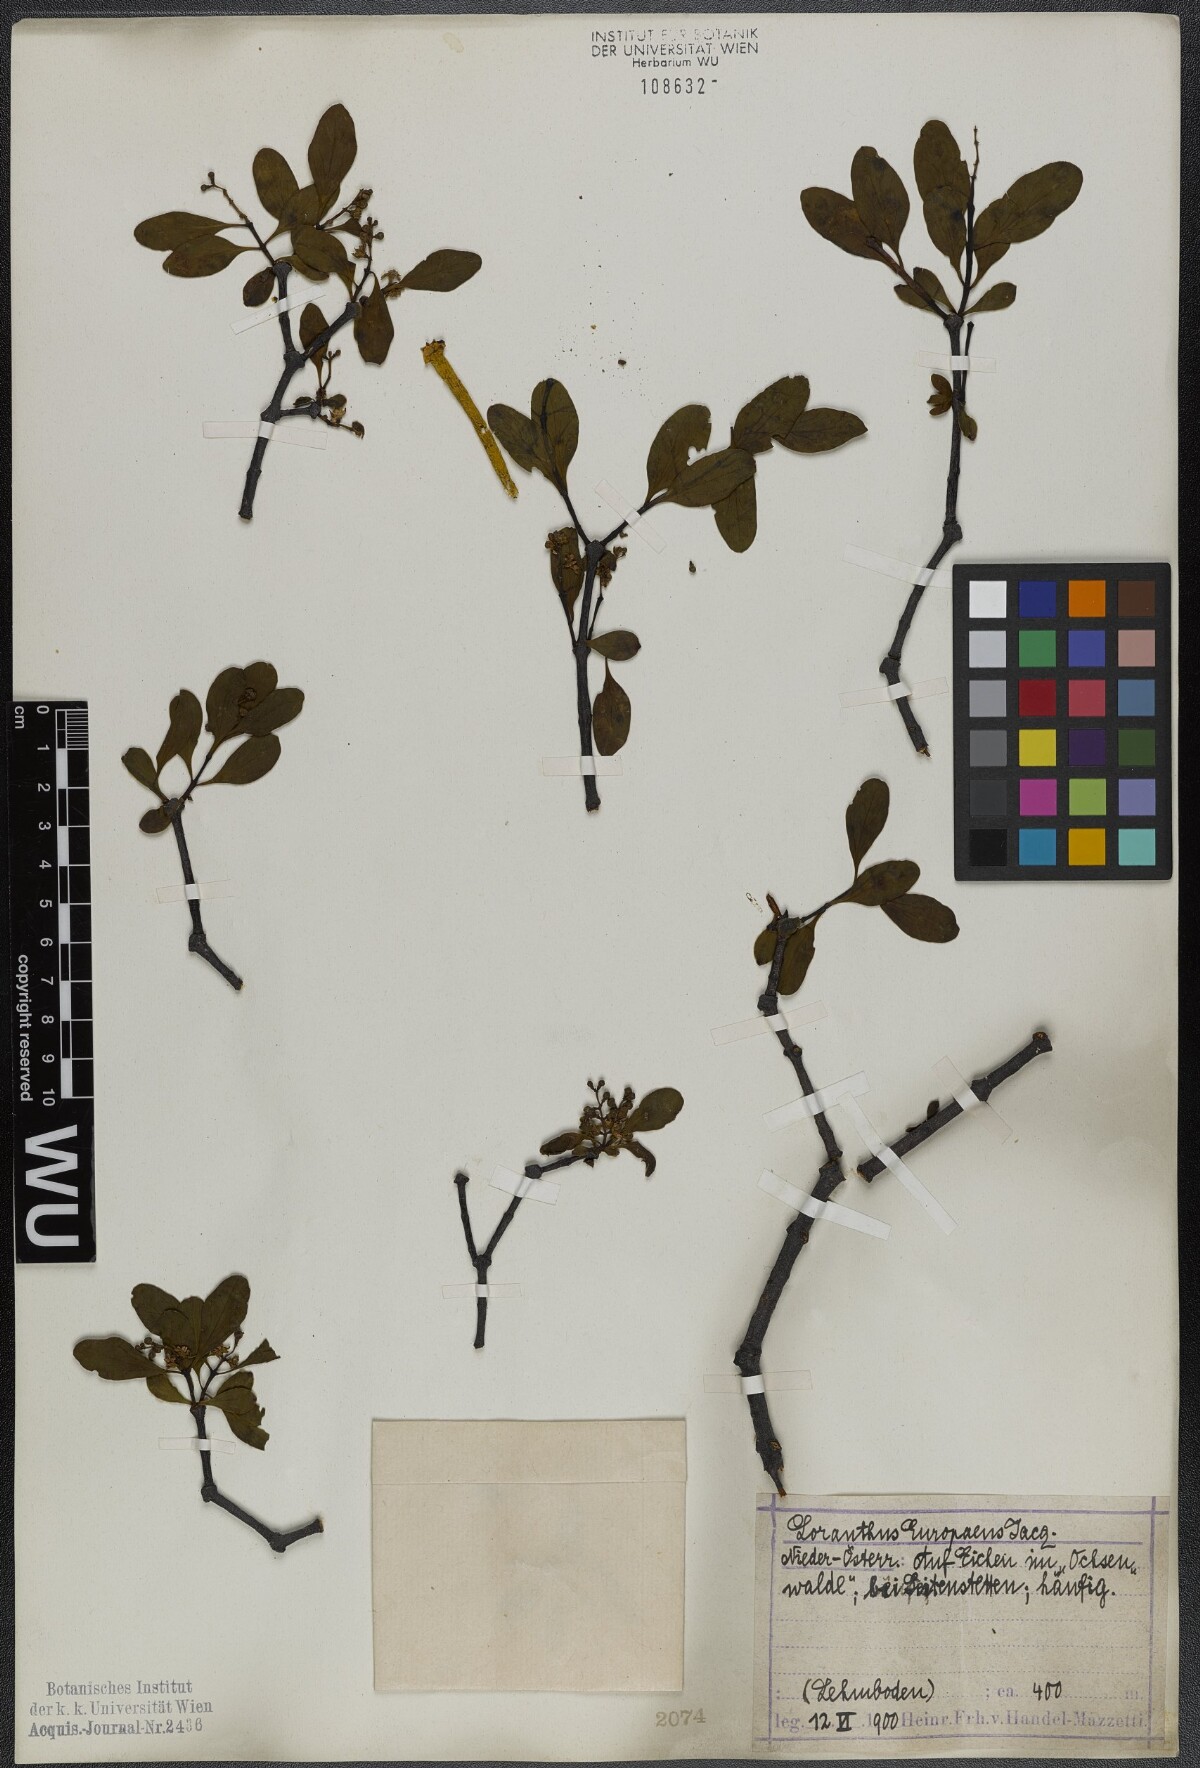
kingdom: Plantae
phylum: Tracheophyta
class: Magnoliopsida
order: Santalales
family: Loranthaceae
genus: Loranthus
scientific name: Loranthus europaeus
